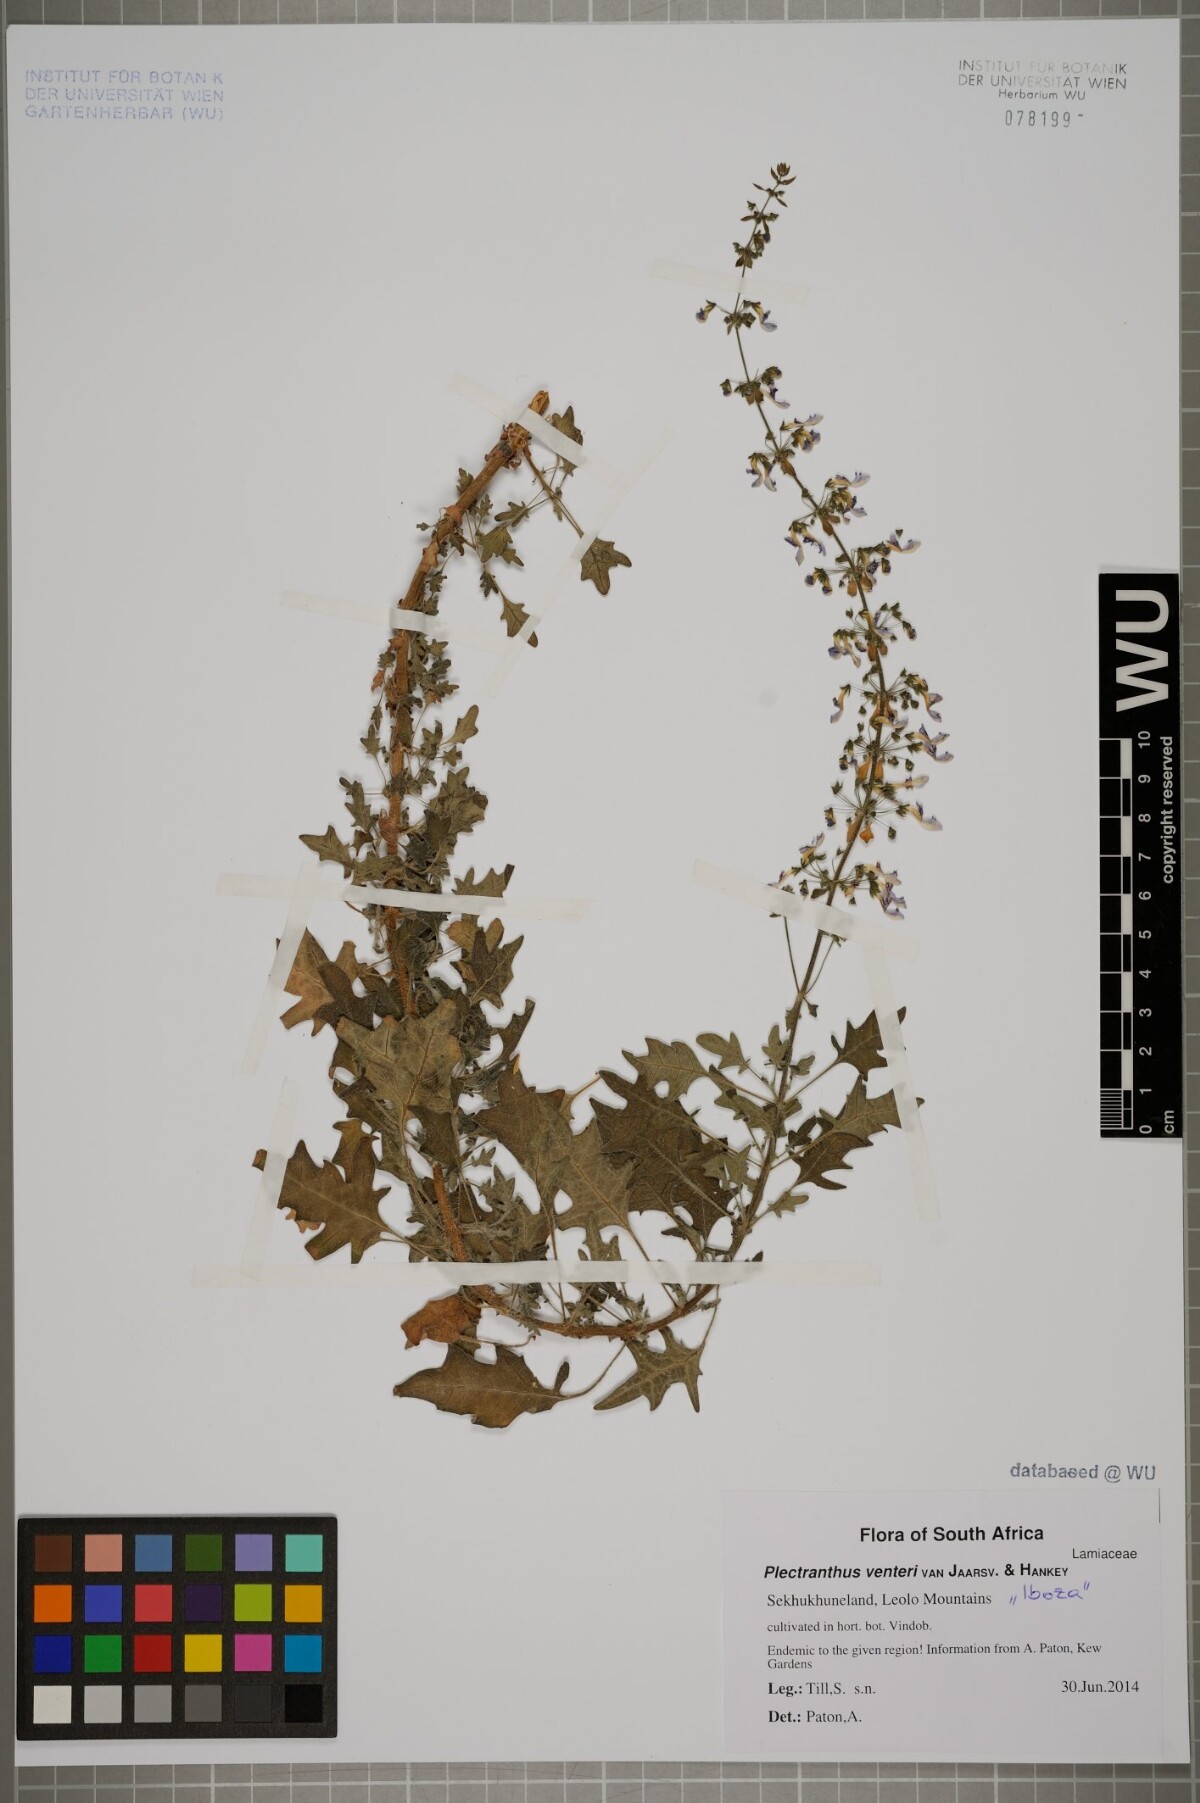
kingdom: Plantae
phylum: Tracheophyta
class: Magnoliopsida
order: Lamiales
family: Lamiaceae
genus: Coleus
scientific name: Coleus venteri
